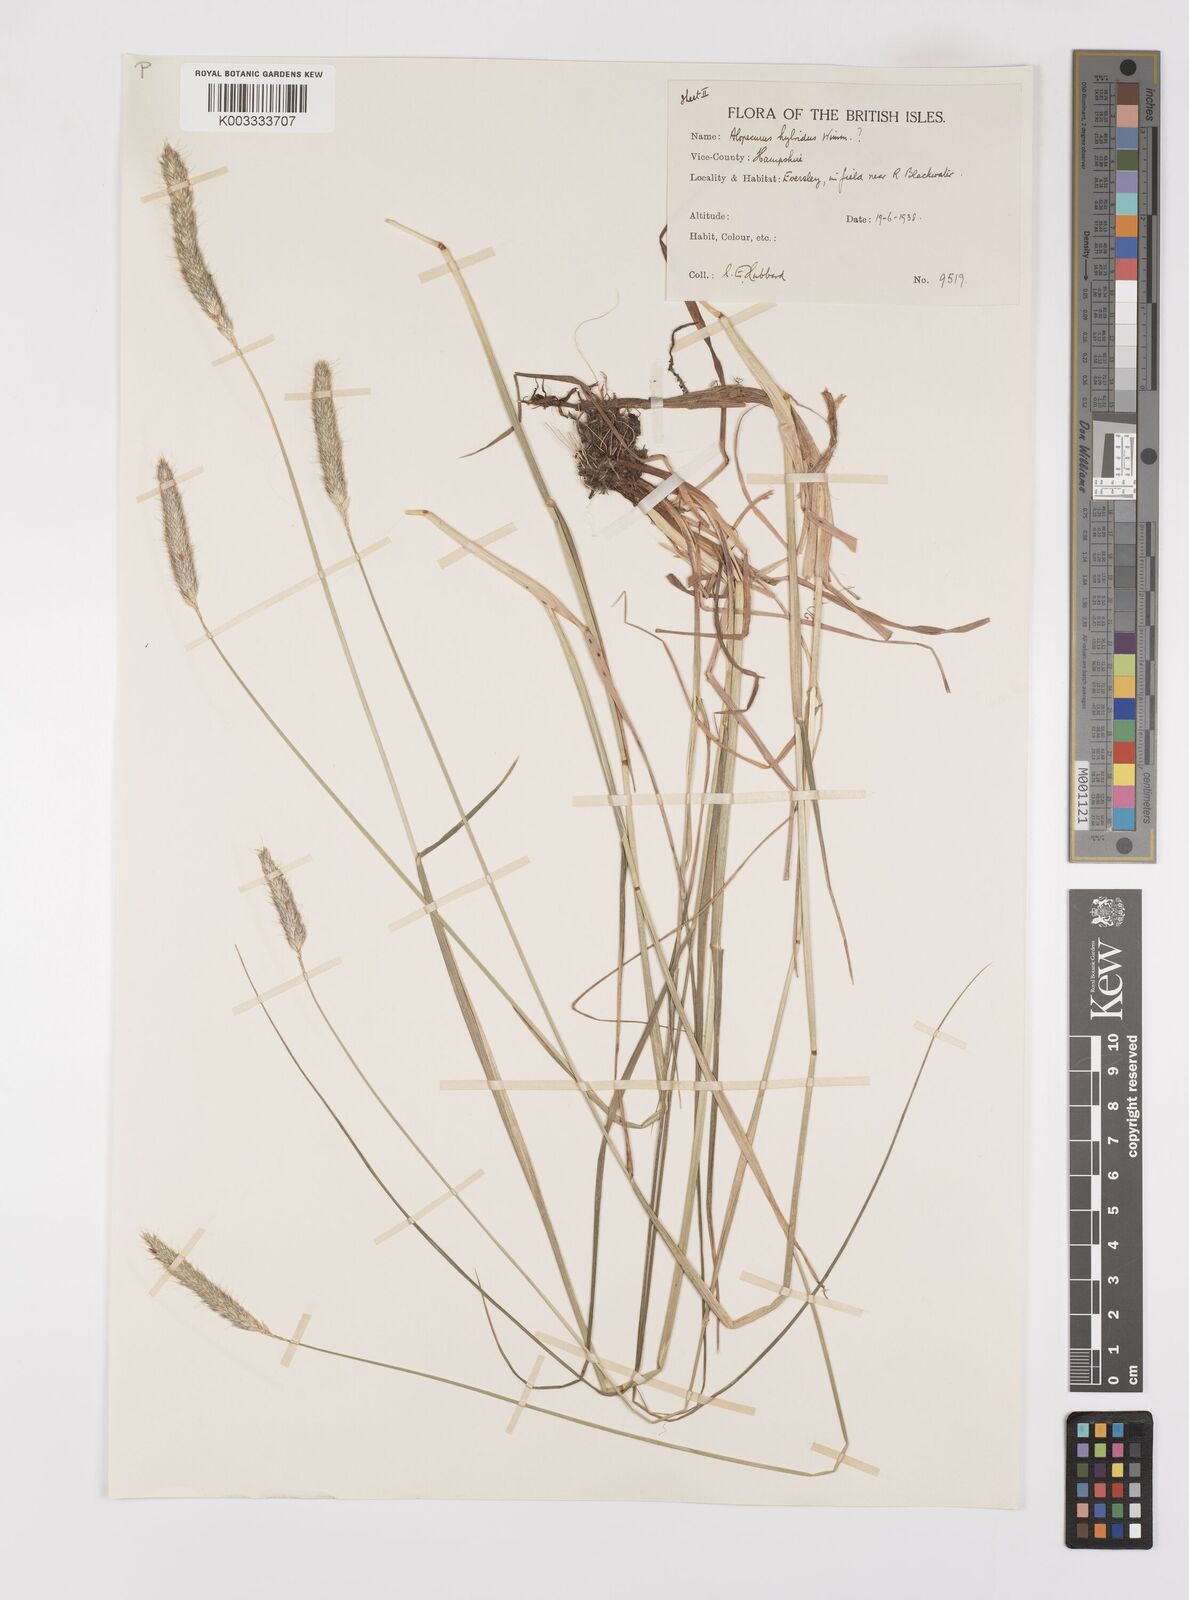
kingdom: Plantae
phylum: Tracheophyta
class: Liliopsida
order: Poales
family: Poaceae
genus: Alopecurus
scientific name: Alopecurus pratensis
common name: Meadow foxtail
